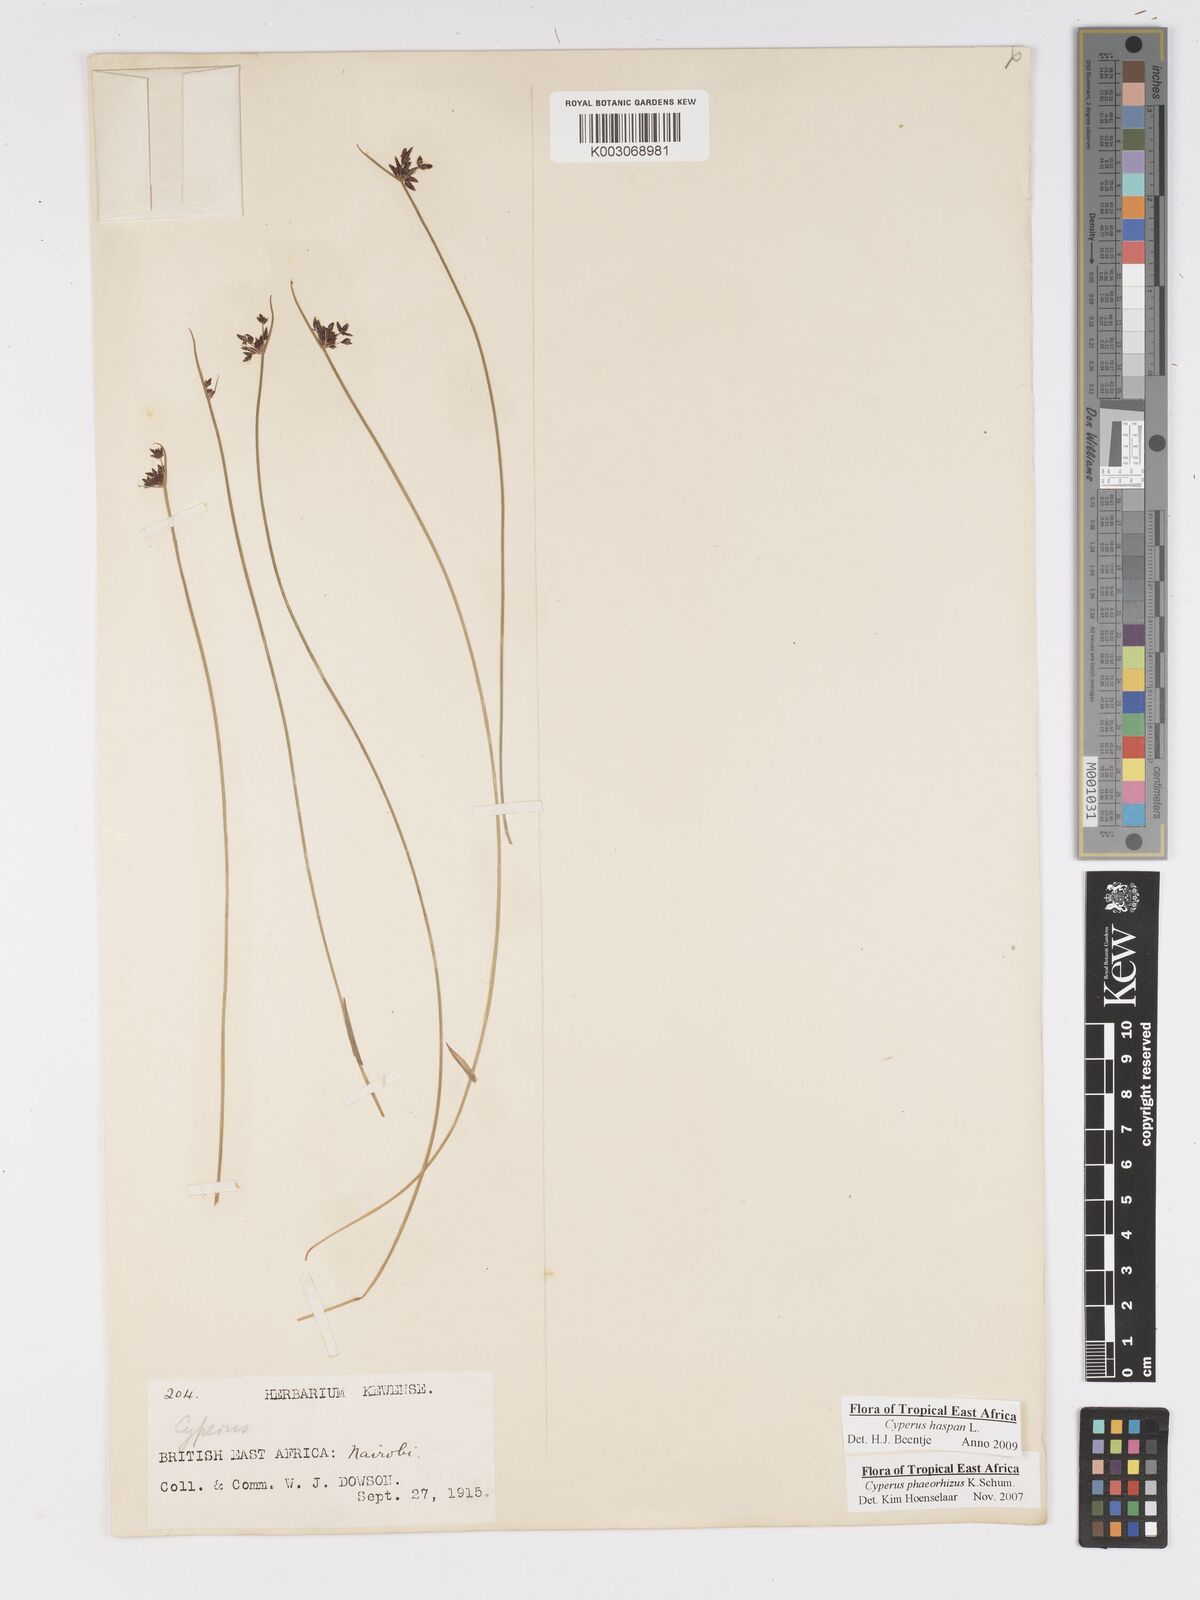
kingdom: Plantae
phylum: Tracheophyta
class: Liliopsida
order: Poales
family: Cyperaceae
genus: Cyperus
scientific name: Cyperus haspan
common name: Haspan flatsedge
